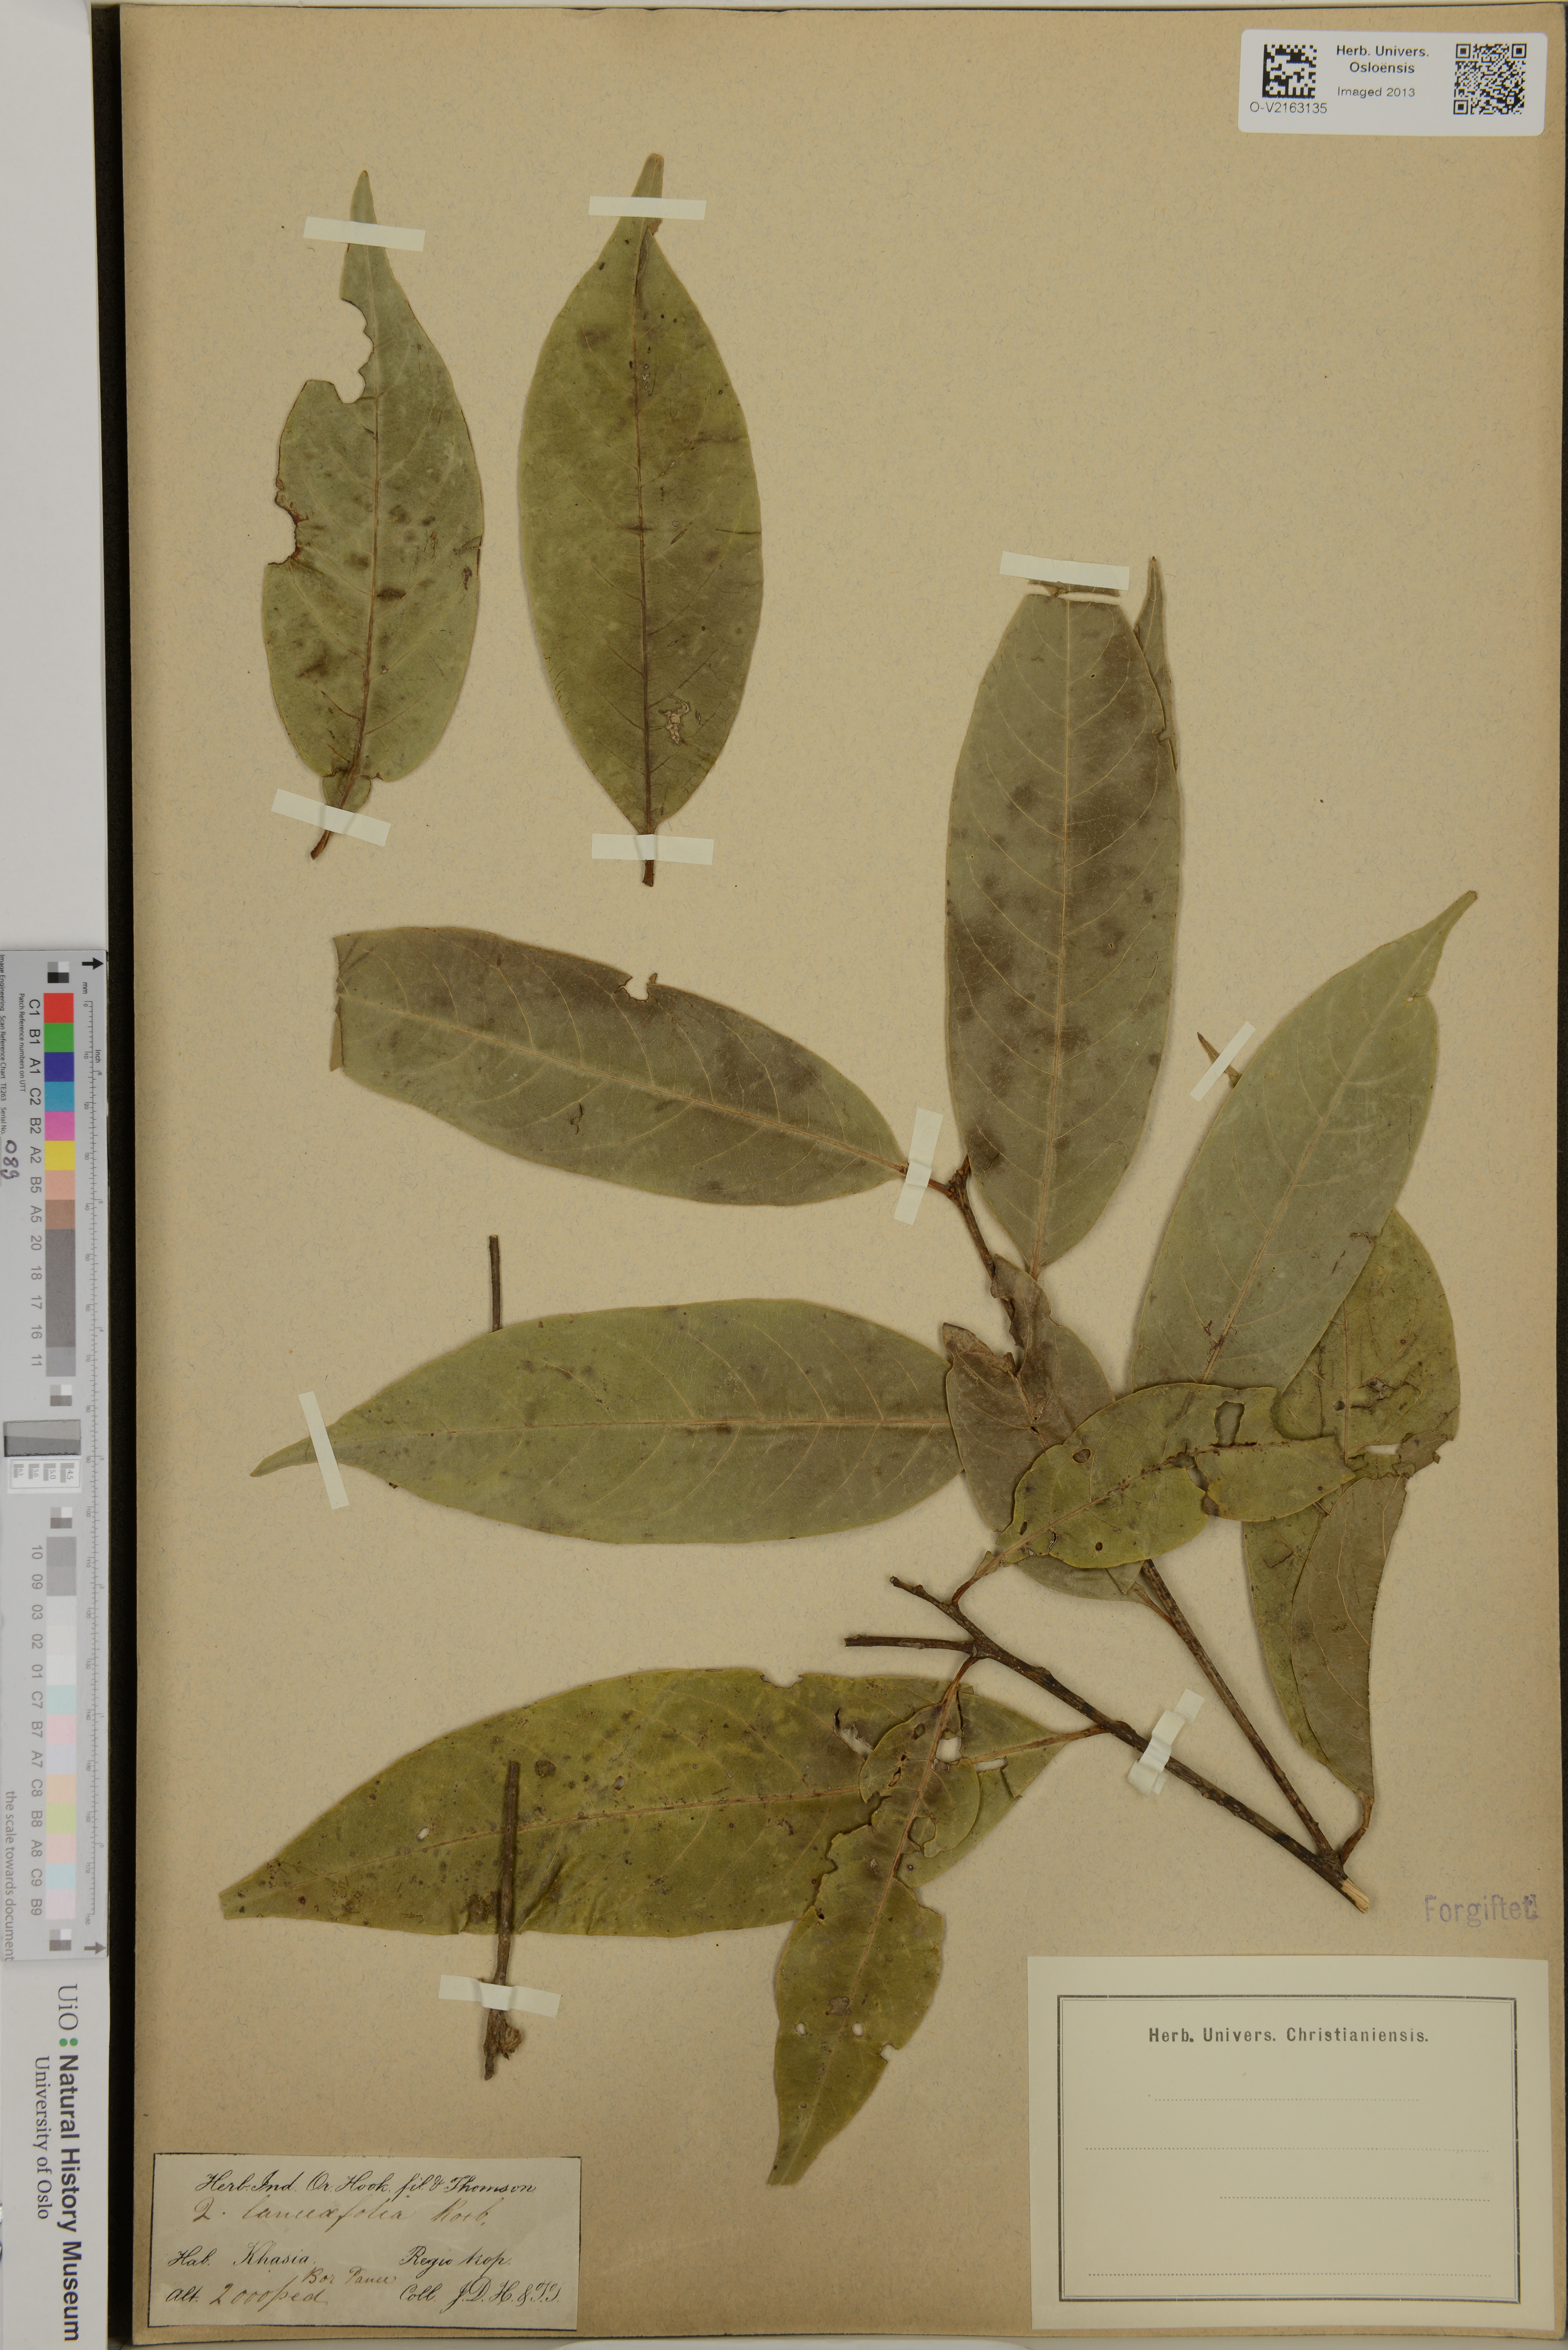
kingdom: Plantae
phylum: Tracheophyta
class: Magnoliopsida
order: Fagales
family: Fagaceae
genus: Quercus
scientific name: Quercus lanceaefolia
